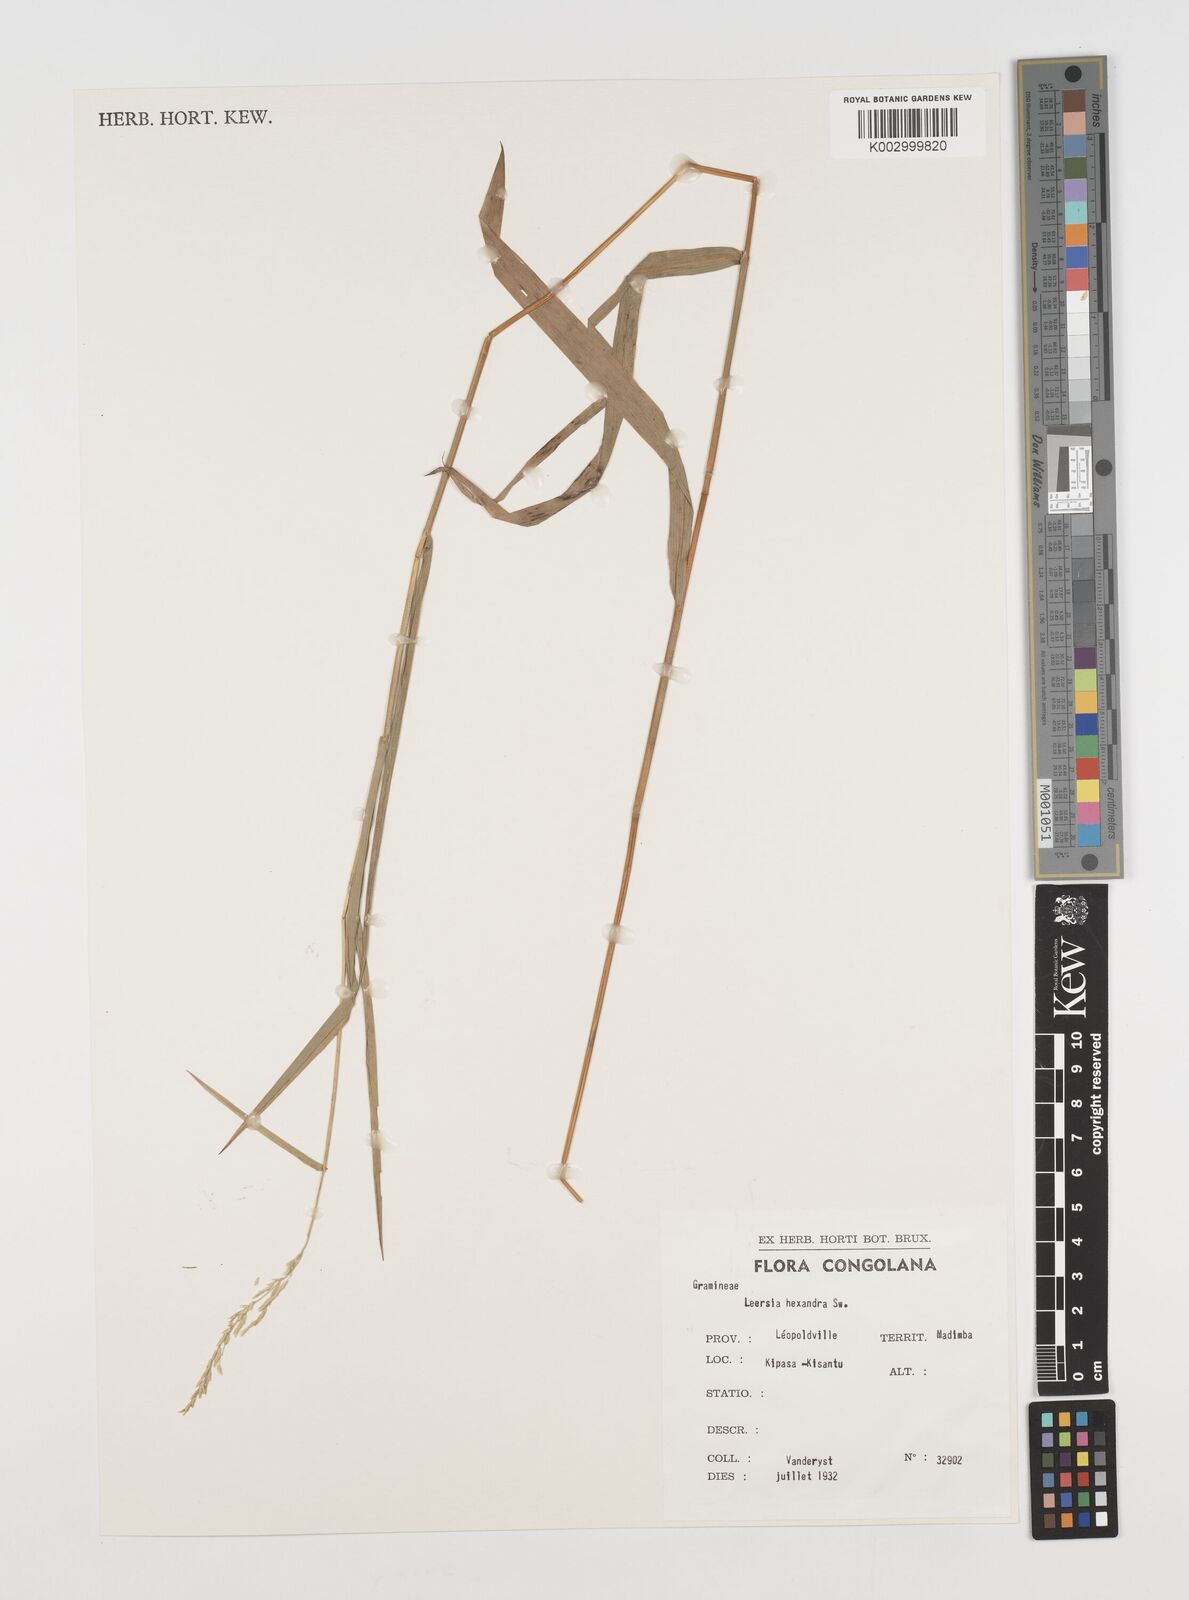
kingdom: Plantae
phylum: Tracheophyta
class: Liliopsida
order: Poales
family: Poaceae
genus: Leersia
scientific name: Leersia hexandra
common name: Southern cut grass
